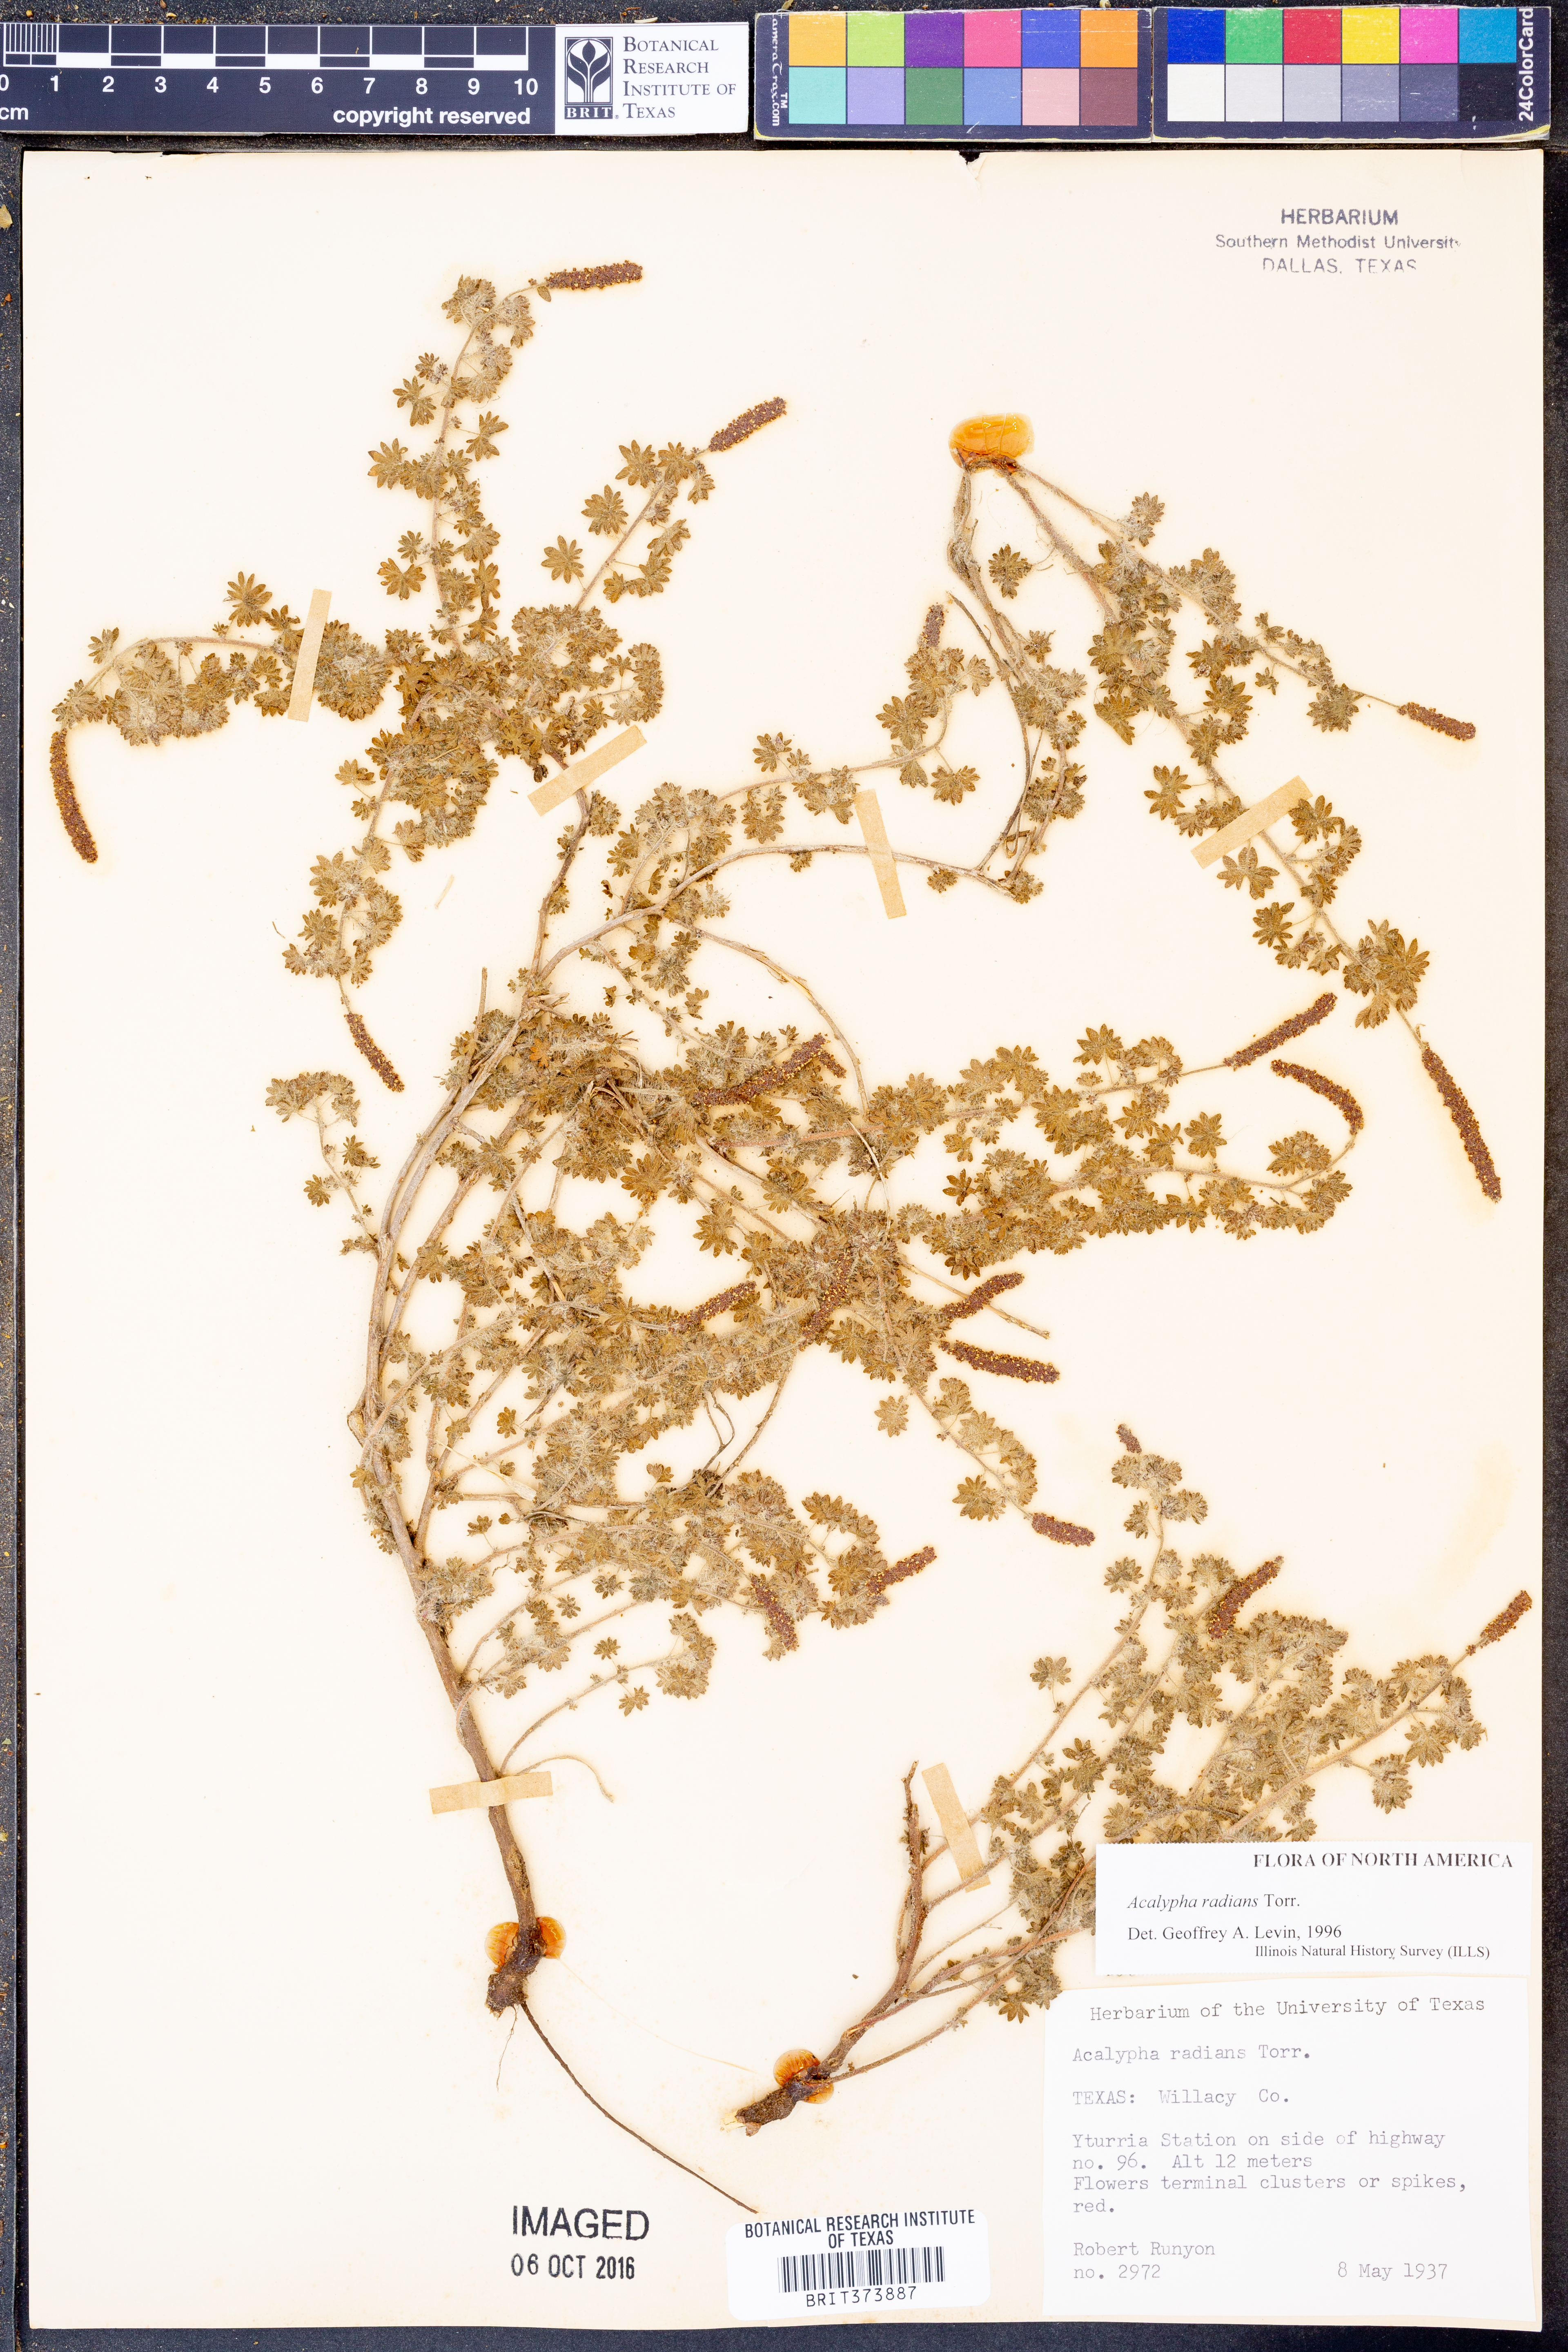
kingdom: Plantae
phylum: Tracheophyta
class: Magnoliopsida
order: Malpighiales
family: Euphorbiaceae
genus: Acalypha
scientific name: Acalypha radians
